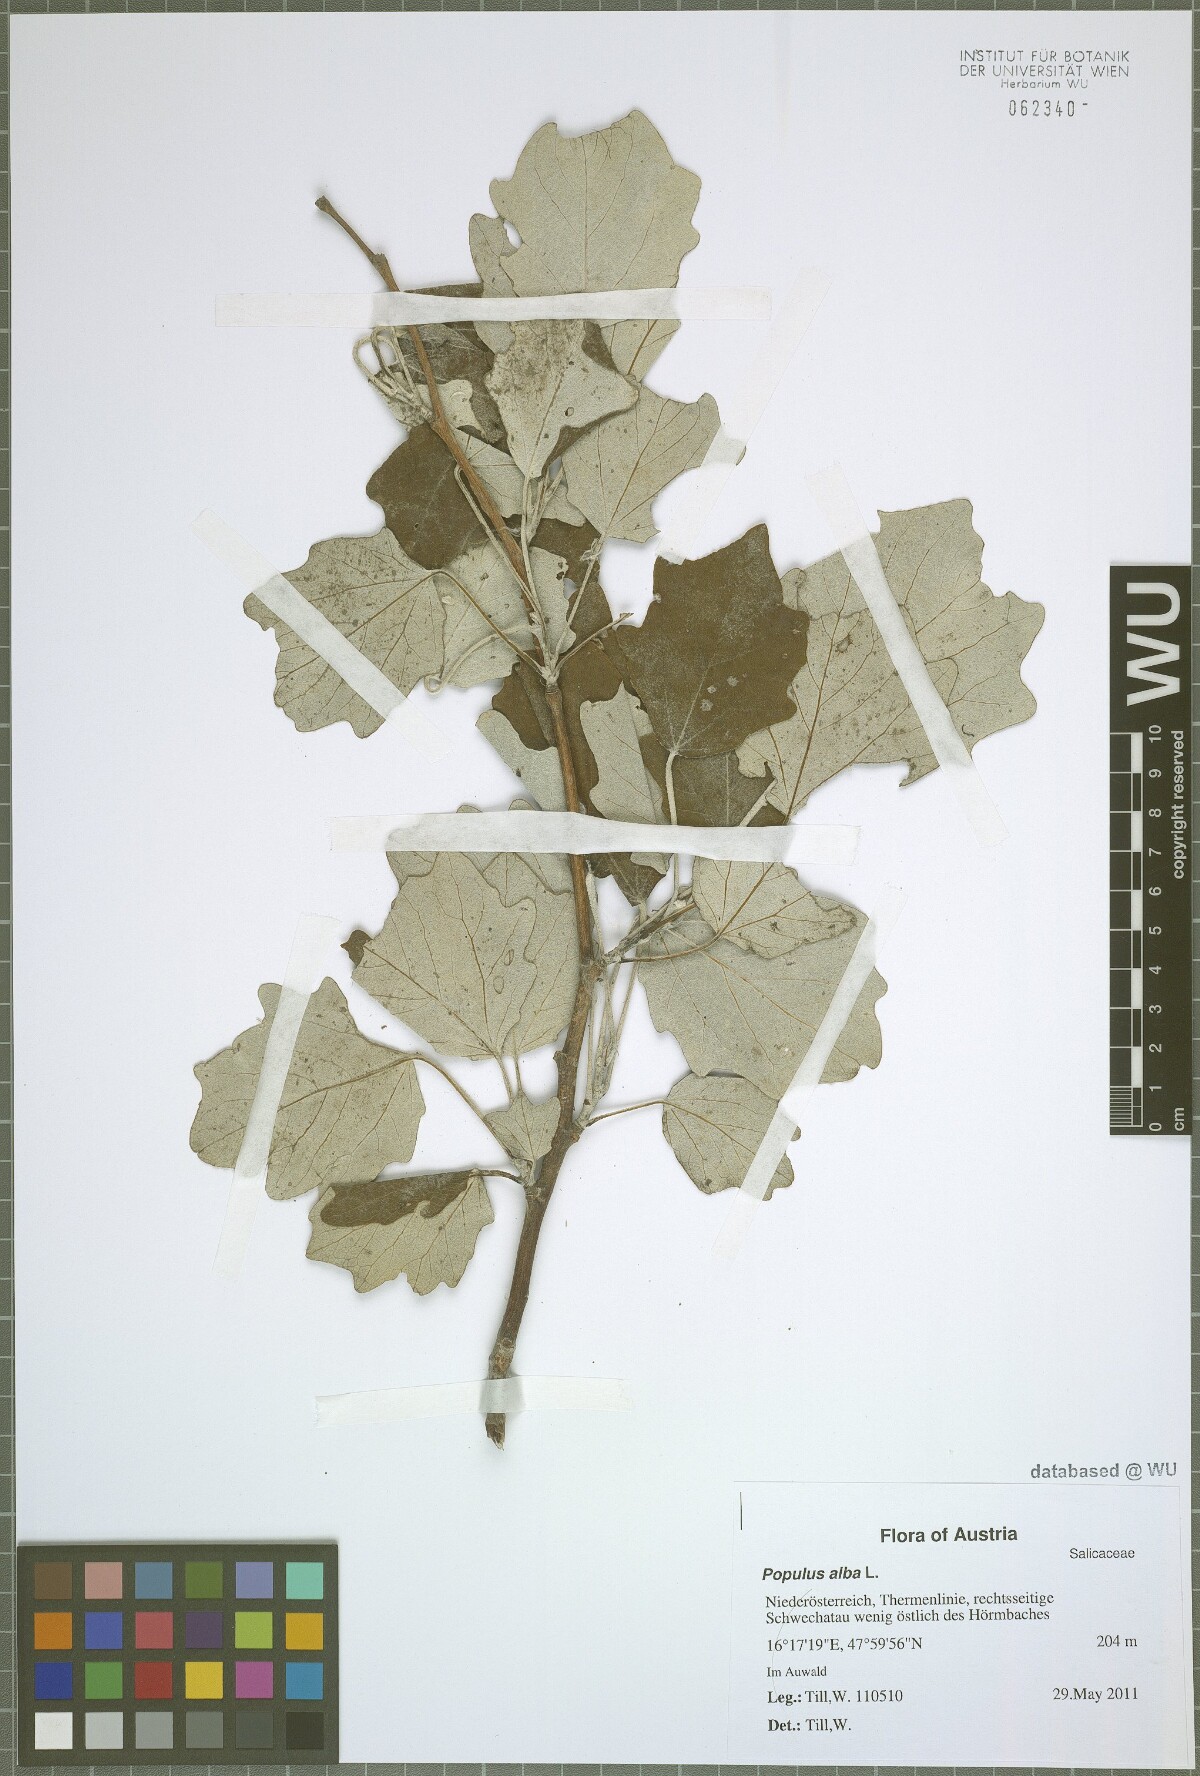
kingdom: Plantae
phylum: Tracheophyta
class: Magnoliopsida
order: Malpighiales
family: Salicaceae
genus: Populus
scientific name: Populus alba
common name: White poplar
